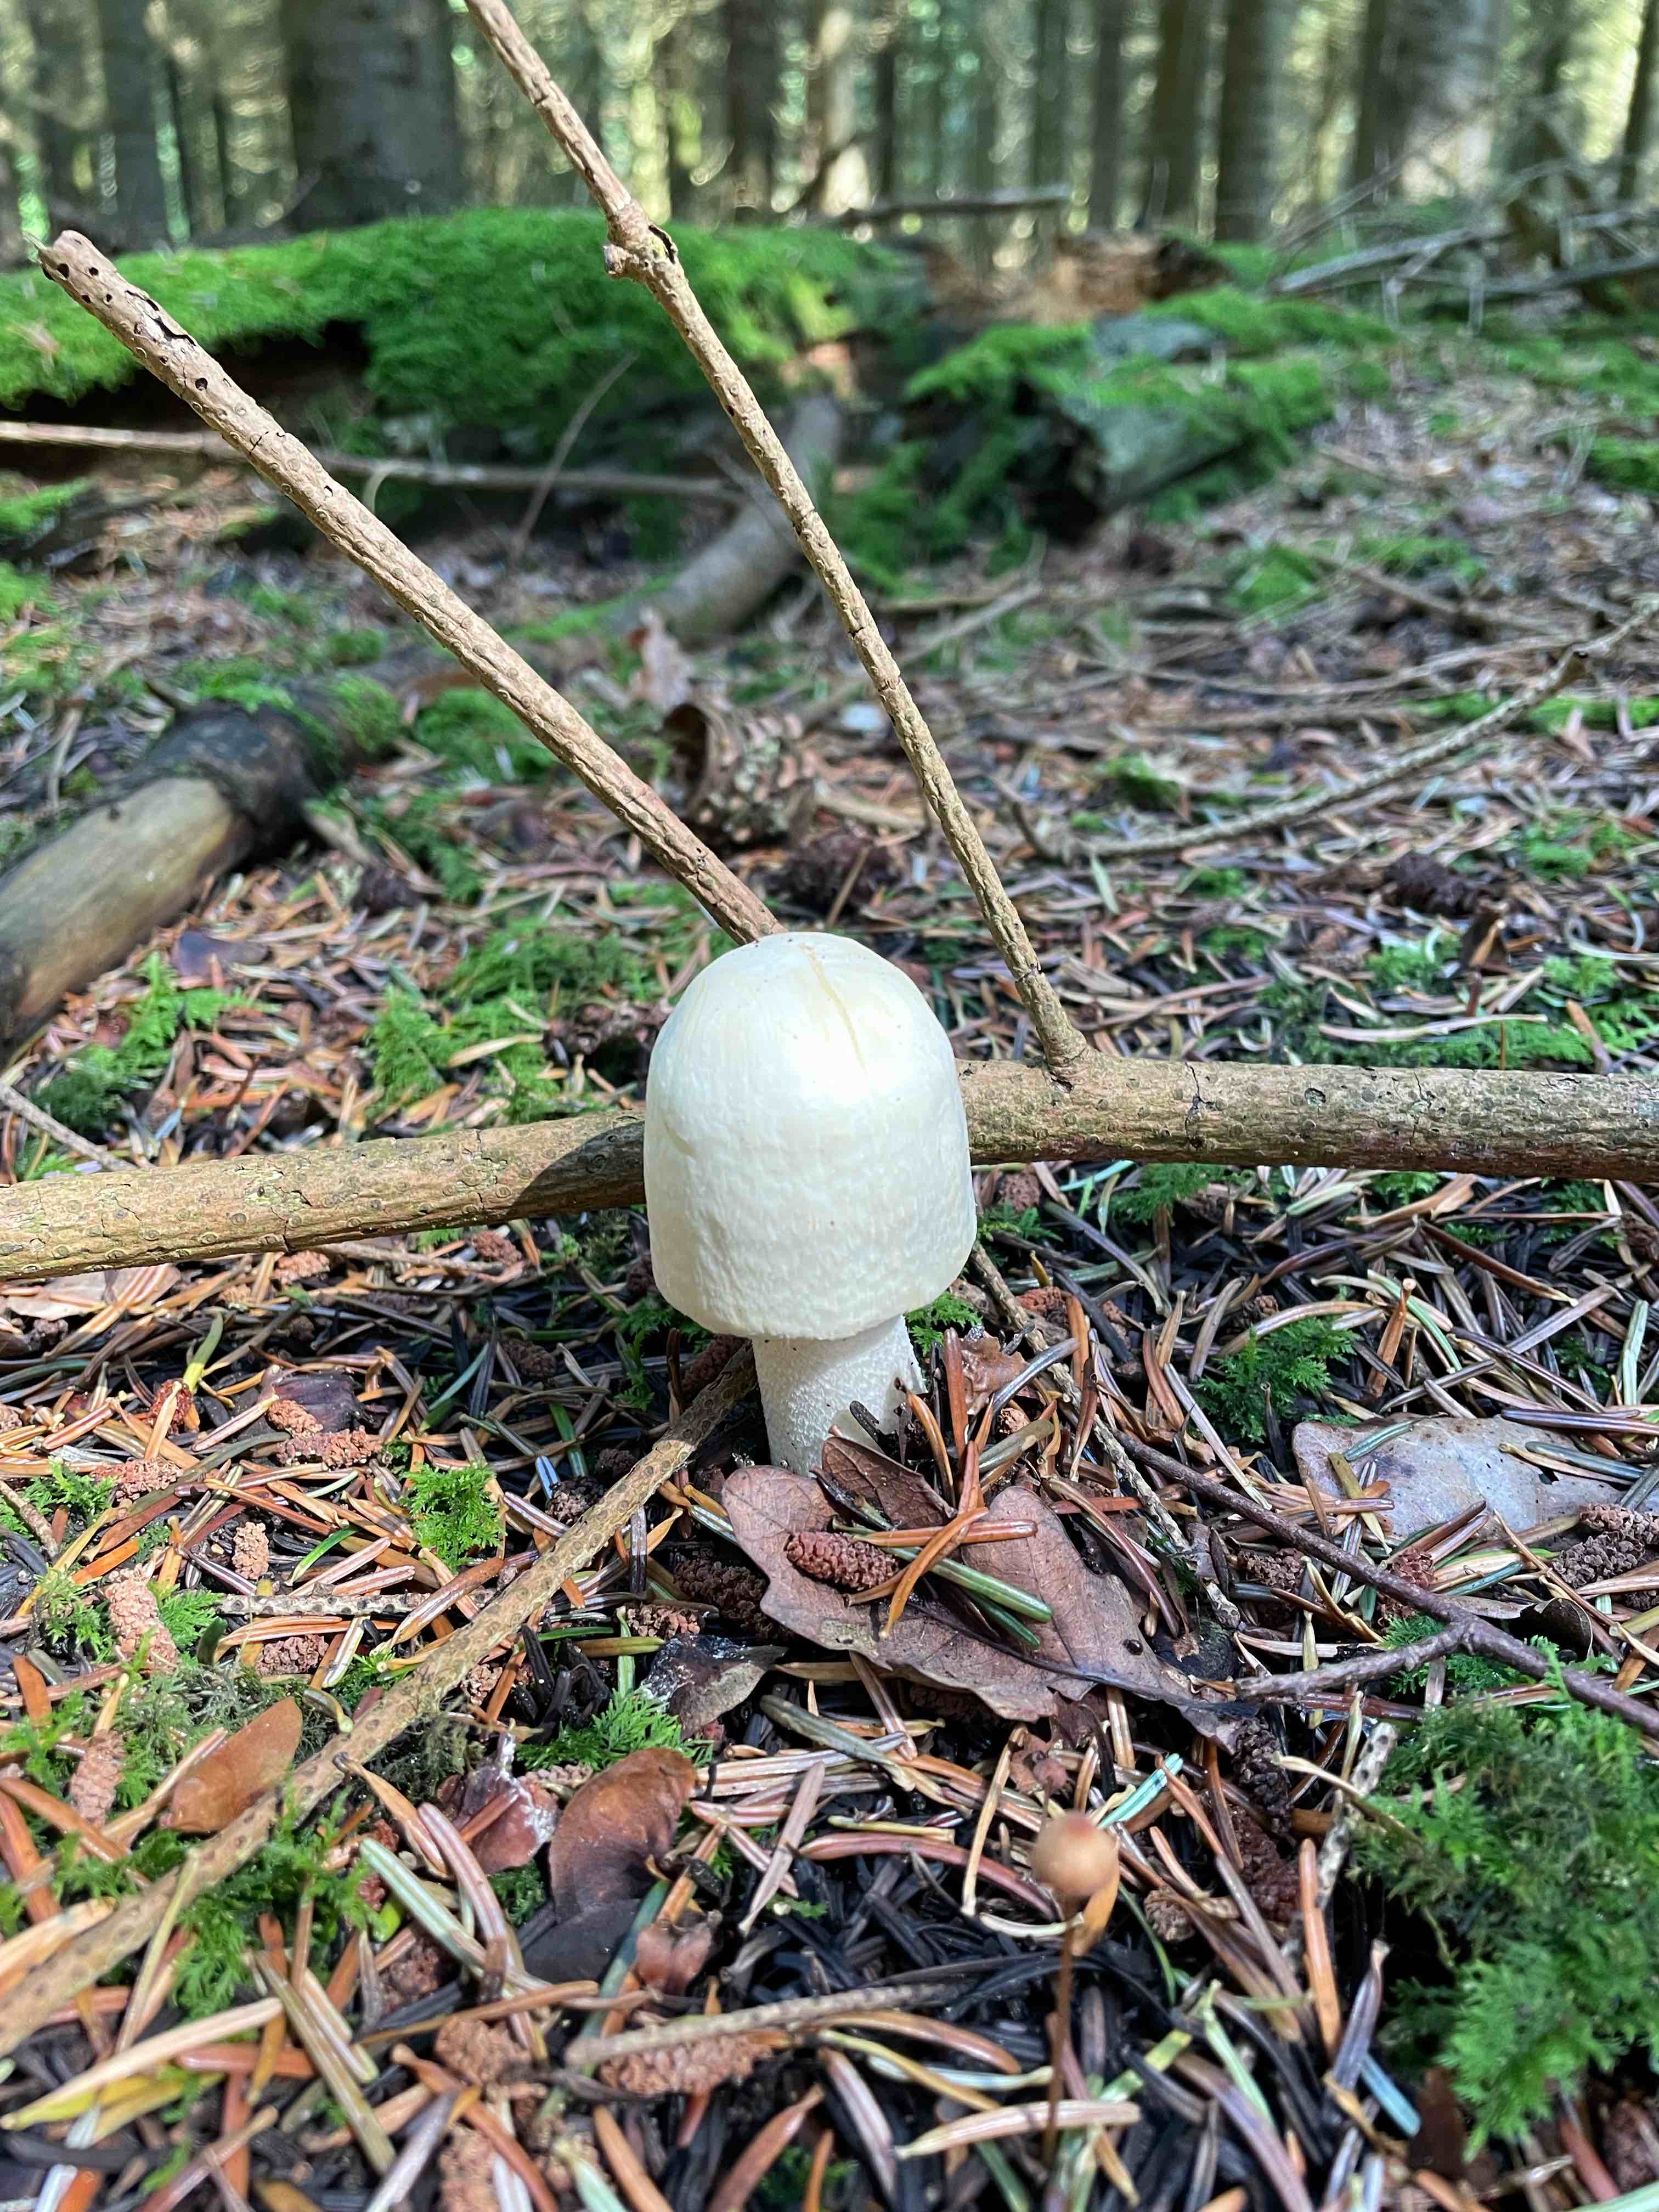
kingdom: Fungi
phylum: Basidiomycota
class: Agaricomycetes
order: Agaricales
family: Agaricaceae
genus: Agaricus
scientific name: Agaricus
